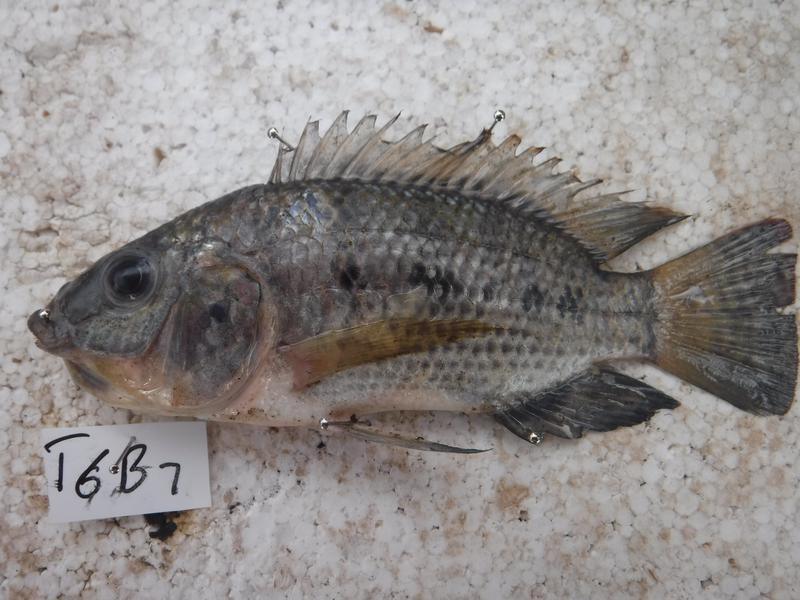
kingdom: Animalia
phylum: Chordata
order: Perciformes
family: Cichlidae
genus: Oreochromis
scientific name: Oreochromis urolepis
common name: Wami tilapia
